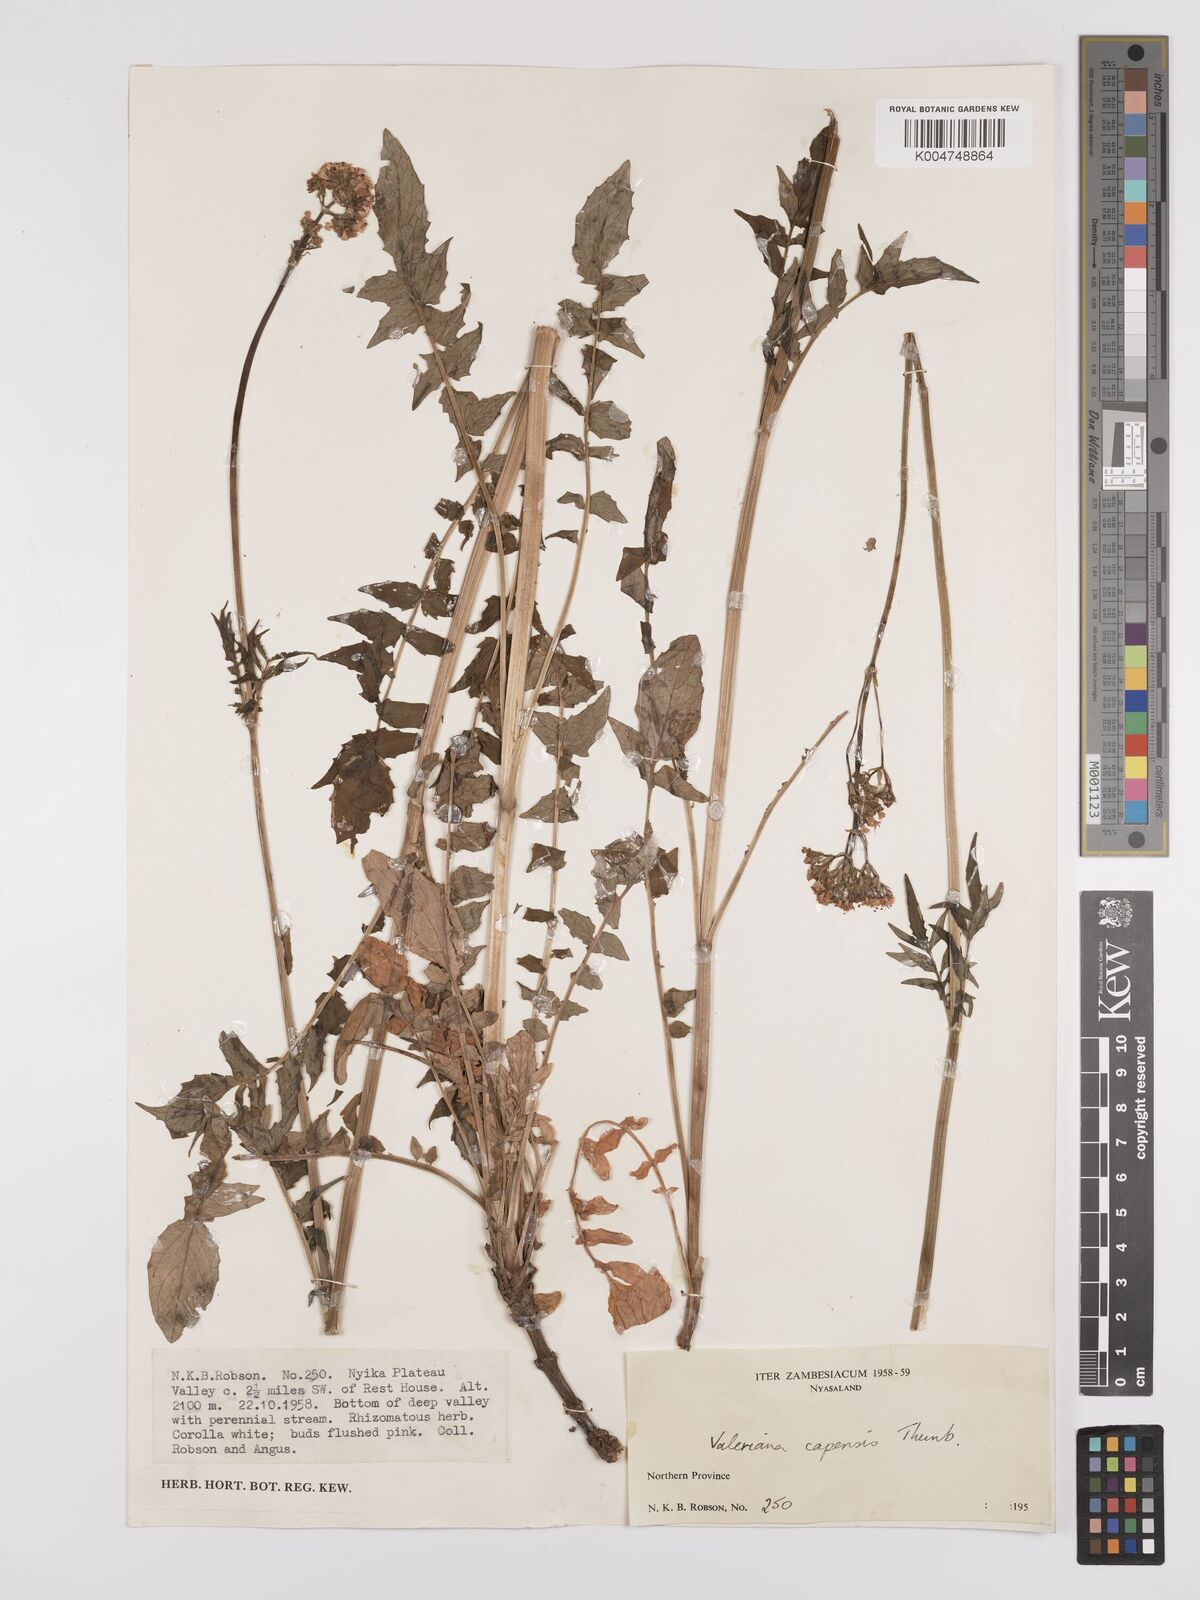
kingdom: Plantae
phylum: Tracheophyta
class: Magnoliopsida
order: Dipsacales
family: Caprifoliaceae
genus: Valeriana
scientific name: Valeriana capensis
